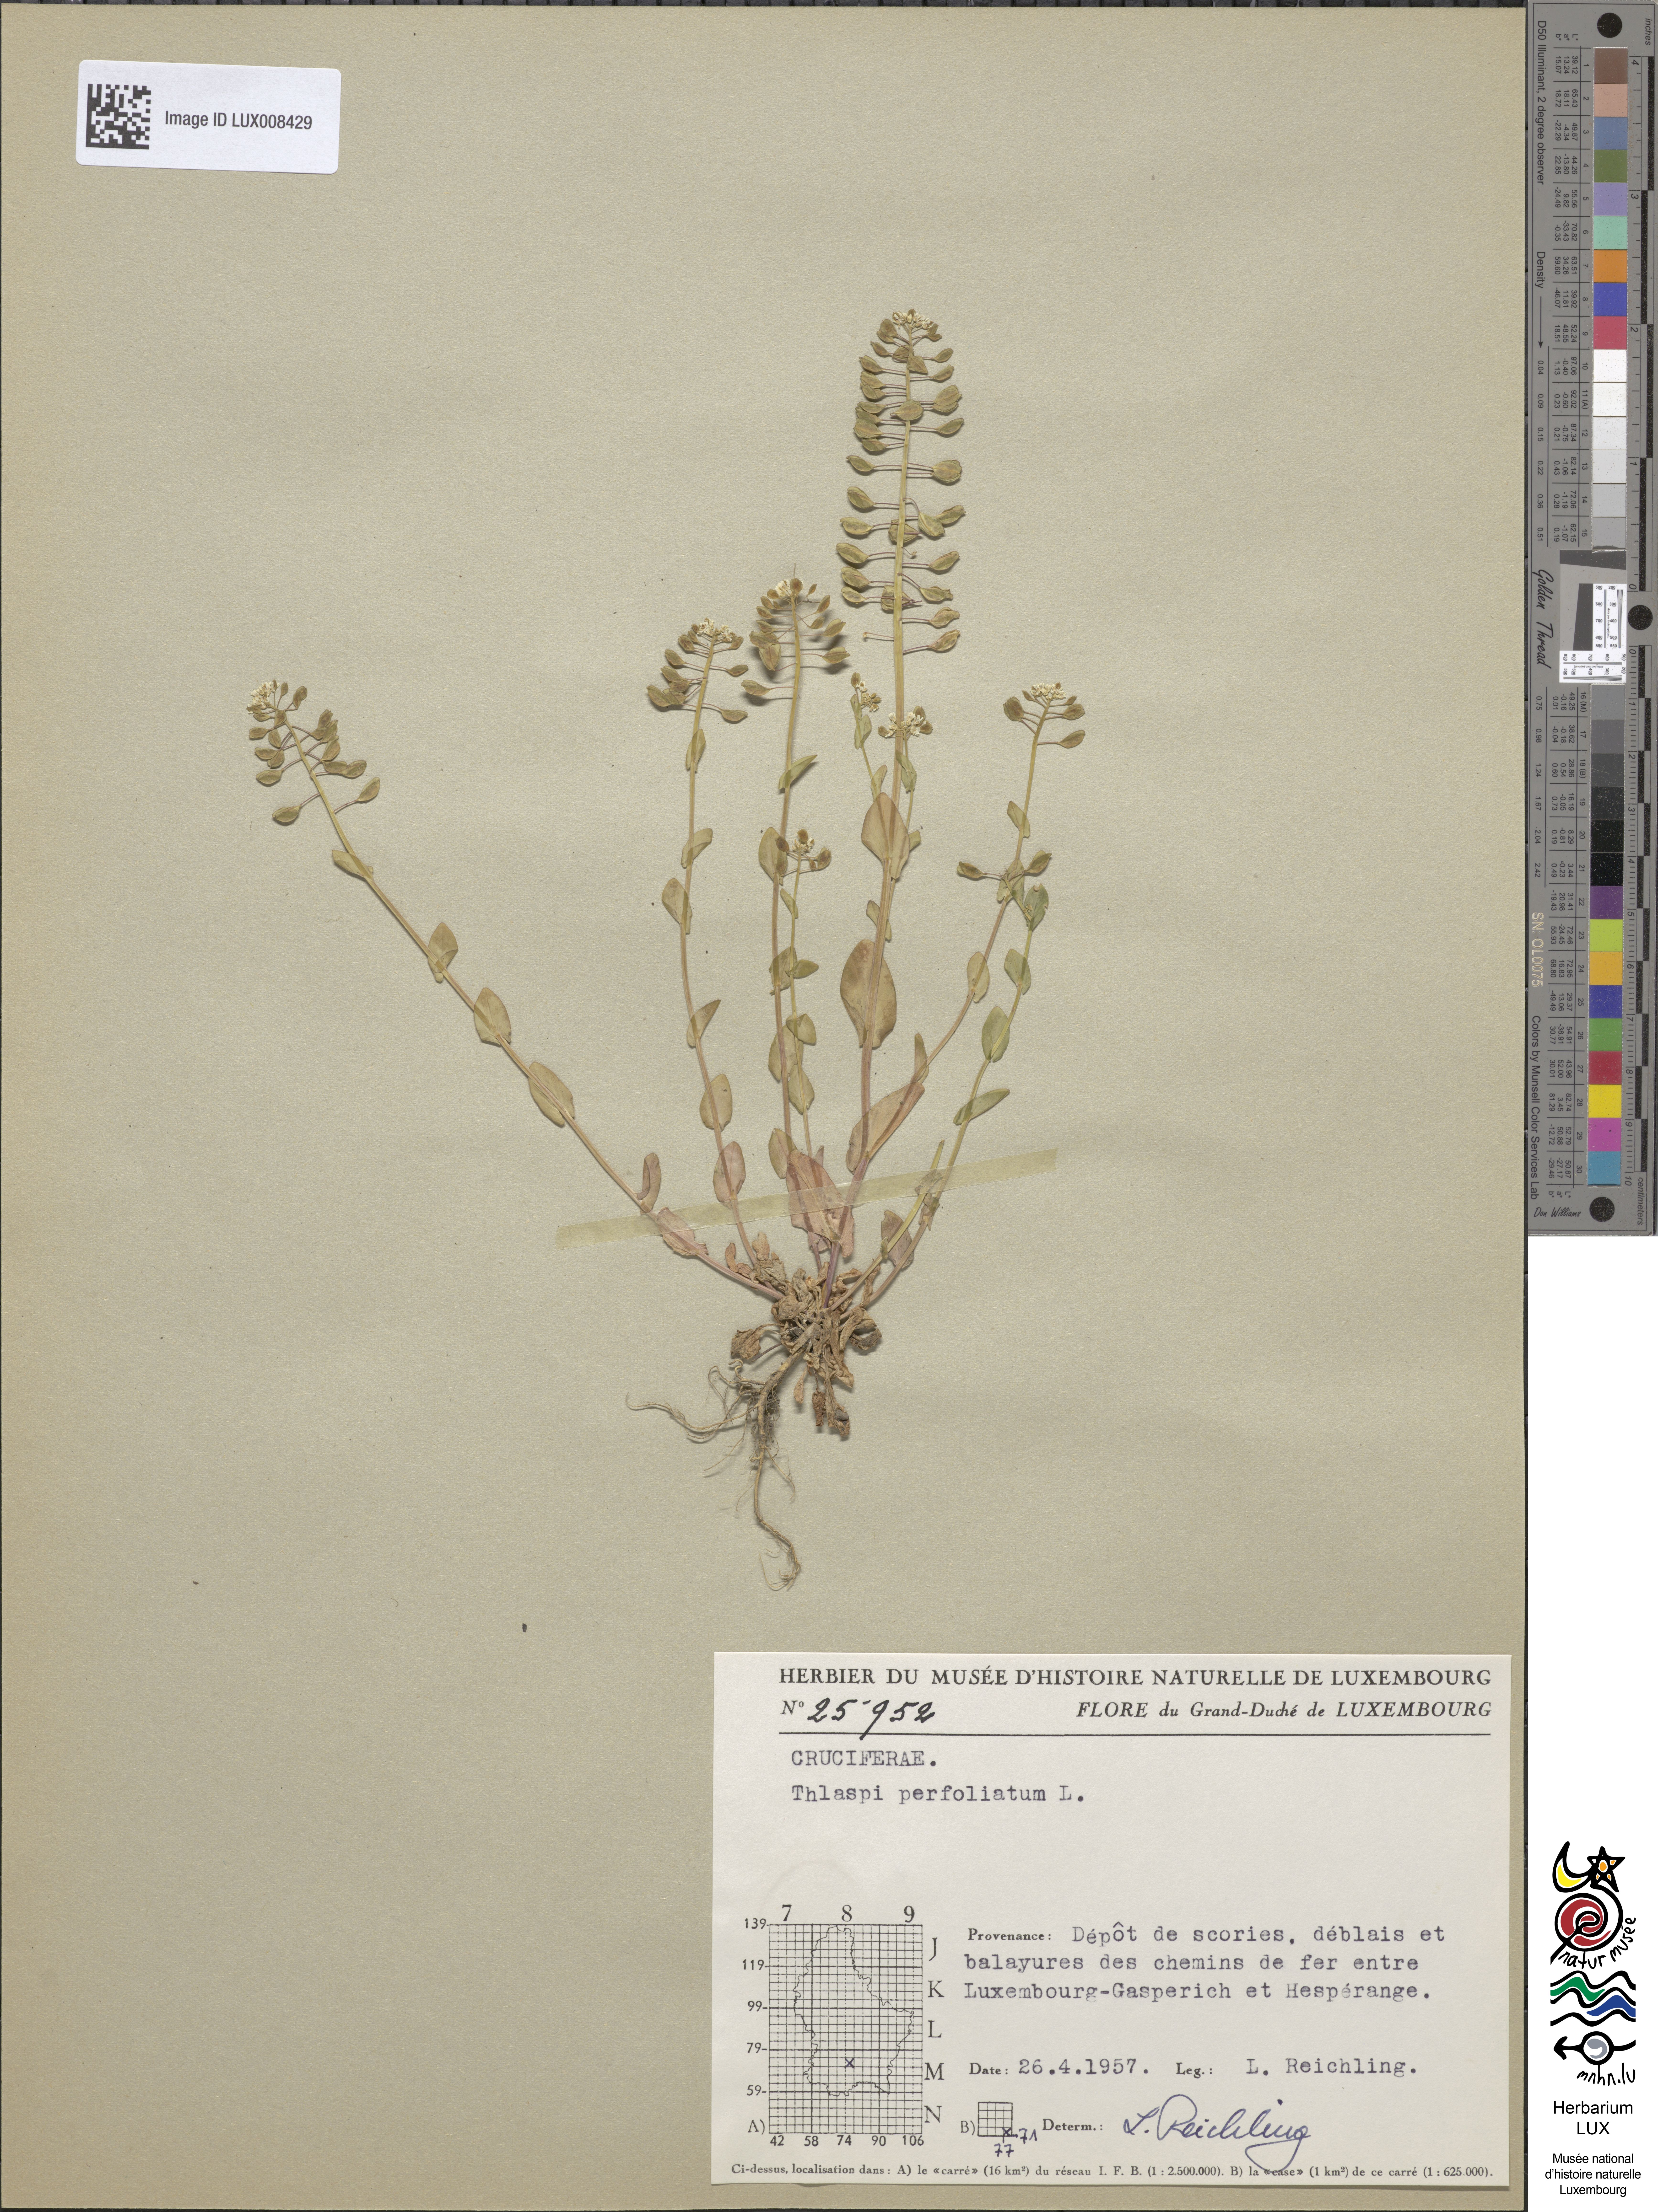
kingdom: Plantae
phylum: Tracheophyta
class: Magnoliopsida
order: Brassicales
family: Brassicaceae
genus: Noccaea
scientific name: Noccaea perfoliata
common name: Perfoliate pennycress
